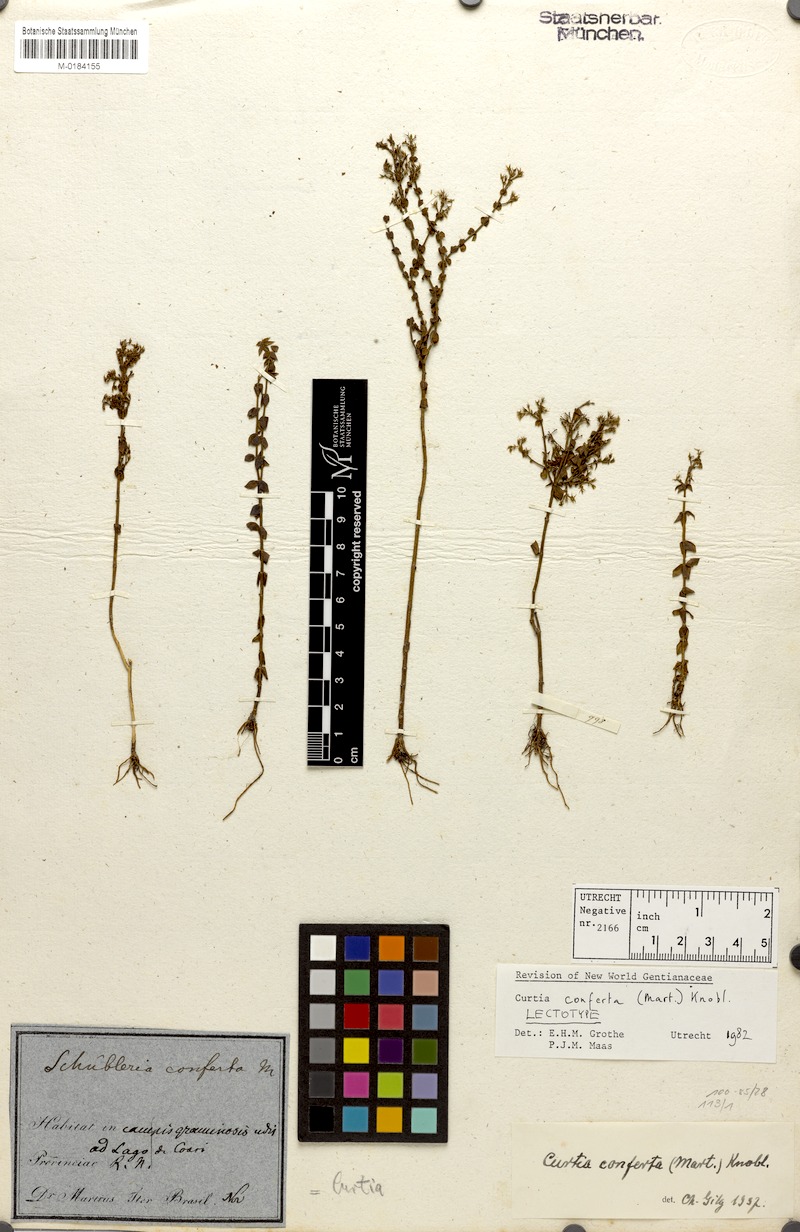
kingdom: Plantae
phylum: Tracheophyta
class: Magnoliopsida
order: Gentianales
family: Gentianaceae
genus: Curtia
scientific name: Curtia conferta
